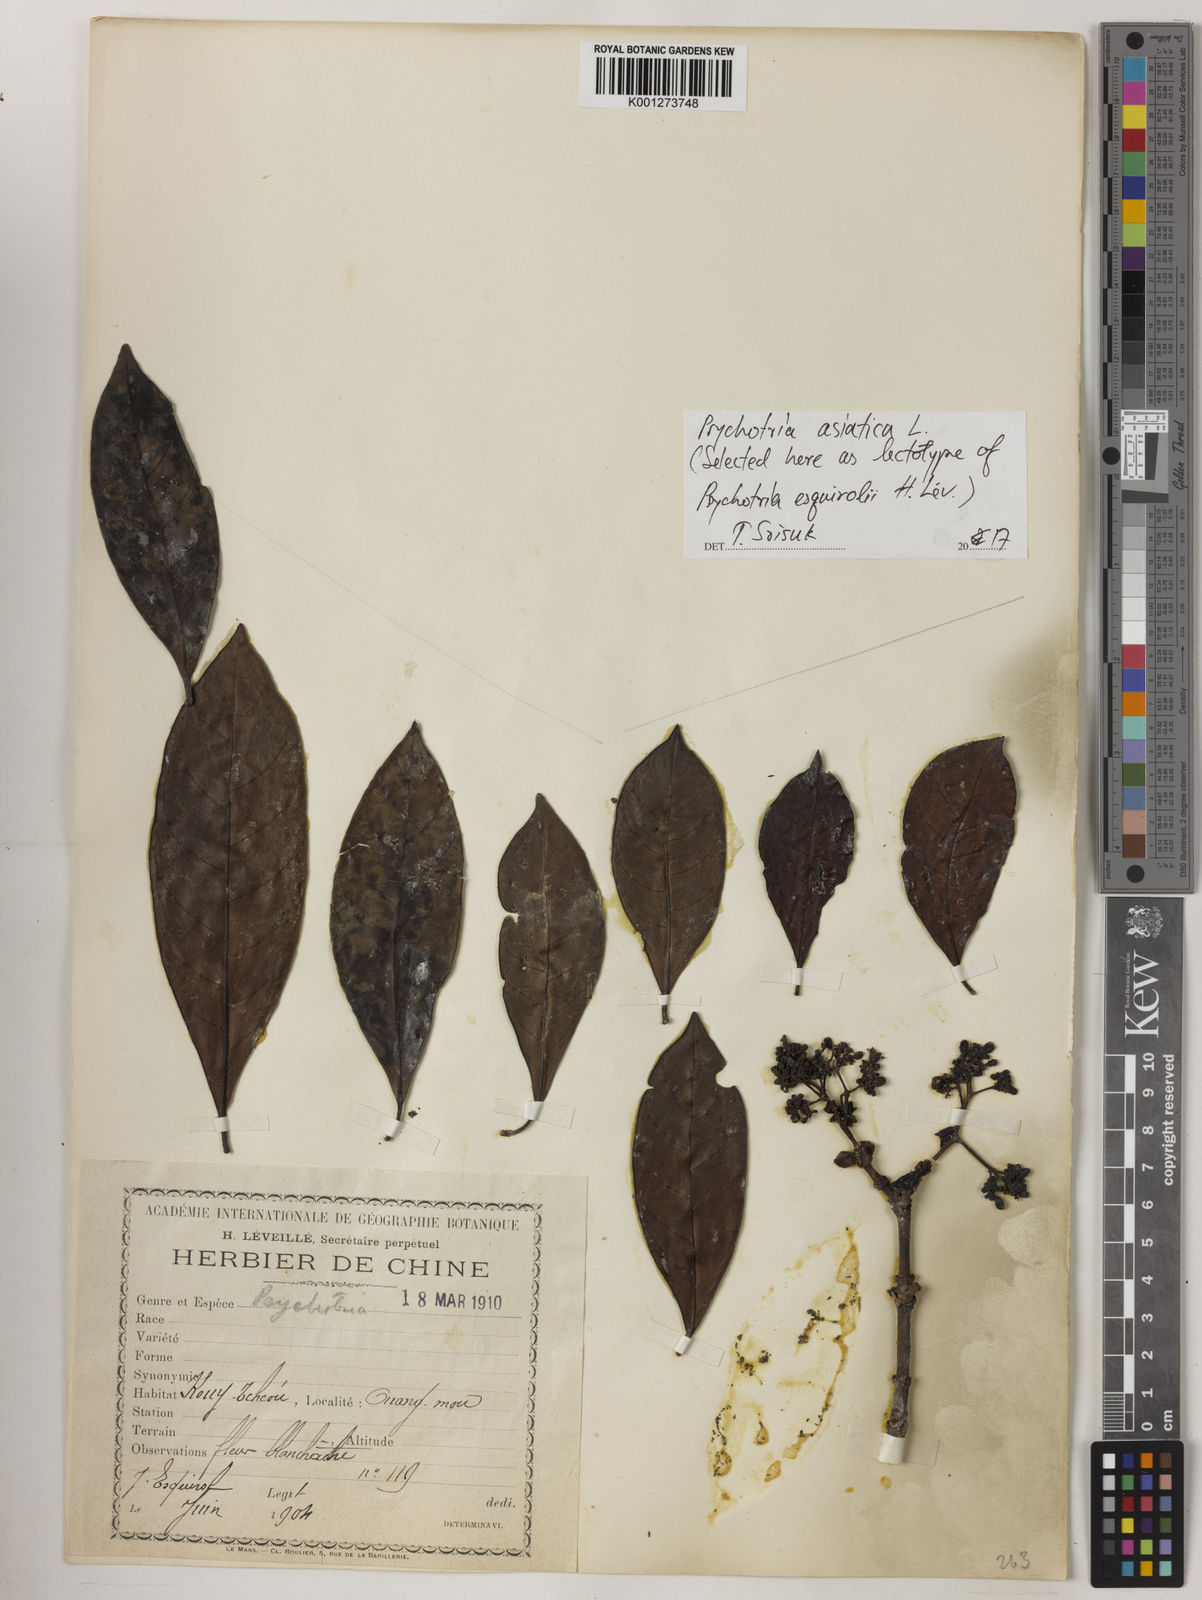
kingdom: Plantae
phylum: Tracheophyta
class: Magnoliopsida
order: Gentianales
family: Rubiaceae
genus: Psychotria
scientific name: Psychotria asiatica
